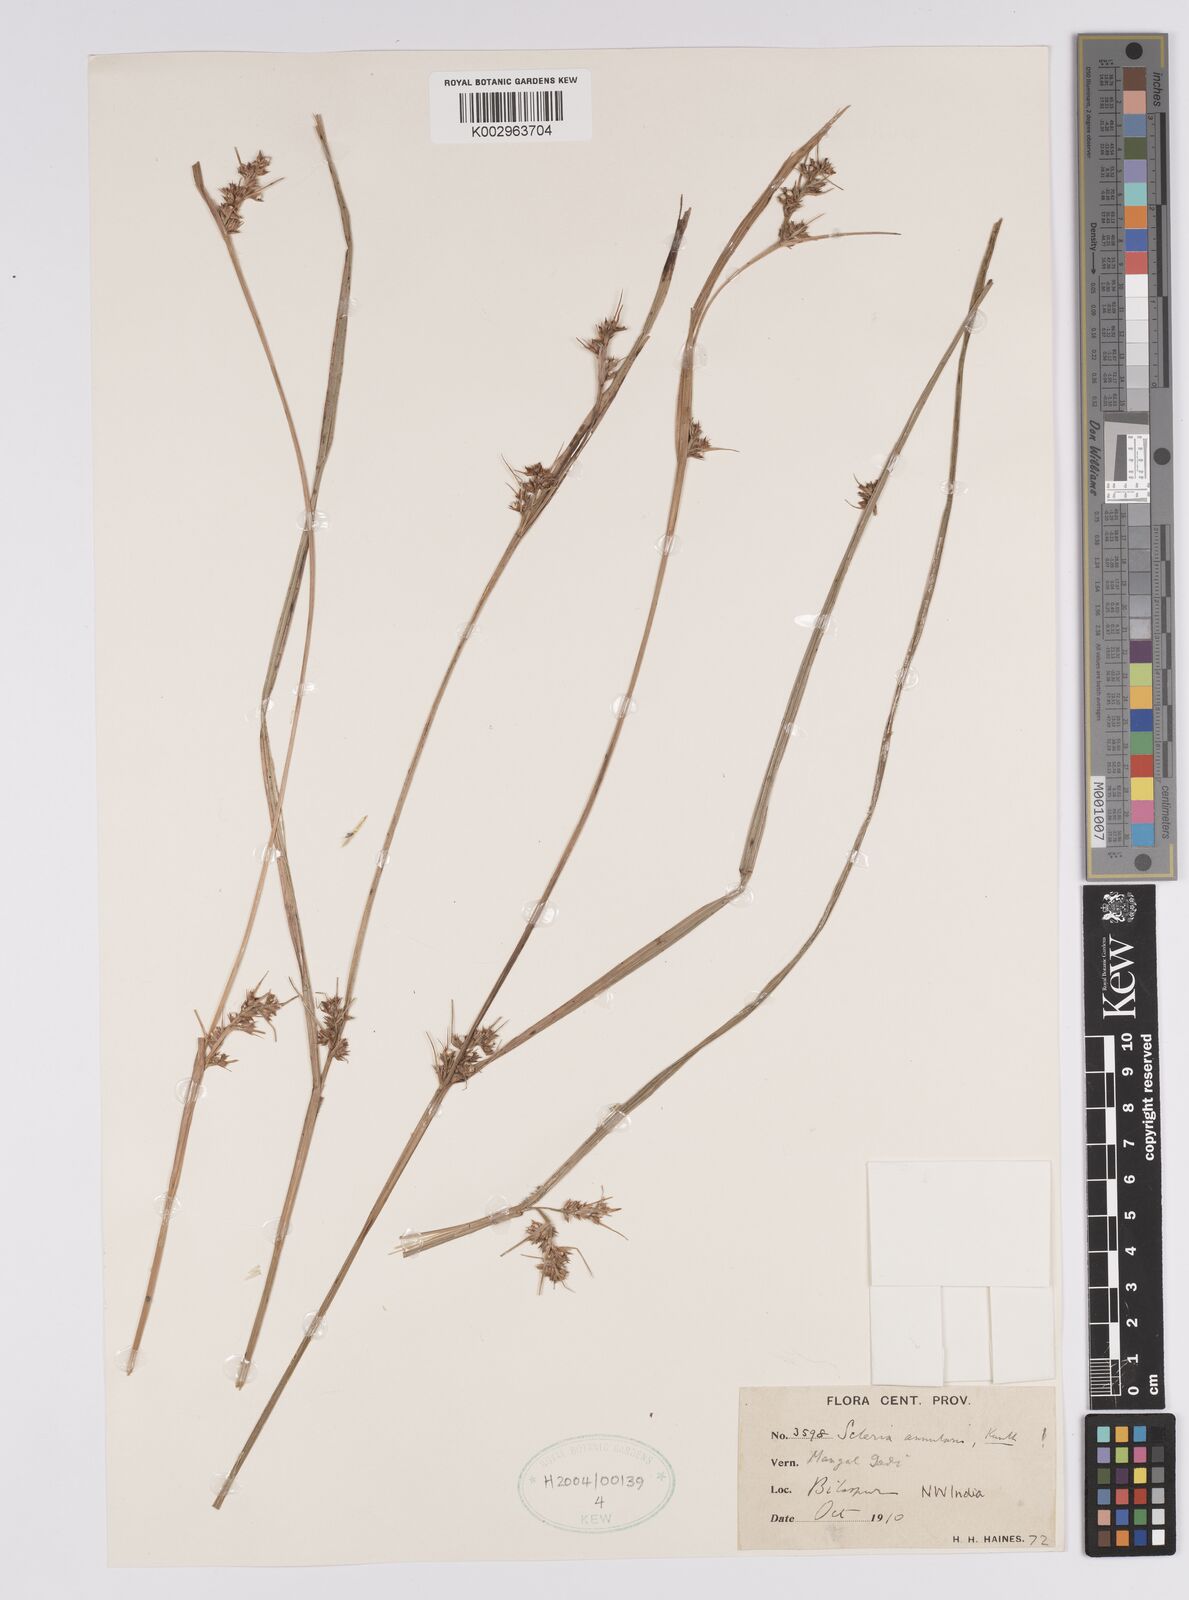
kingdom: Plantae
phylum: Tracheophyta
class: Liliopsida
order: Poales
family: Cyperaceae
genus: Scleria
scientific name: Scleria annularis
